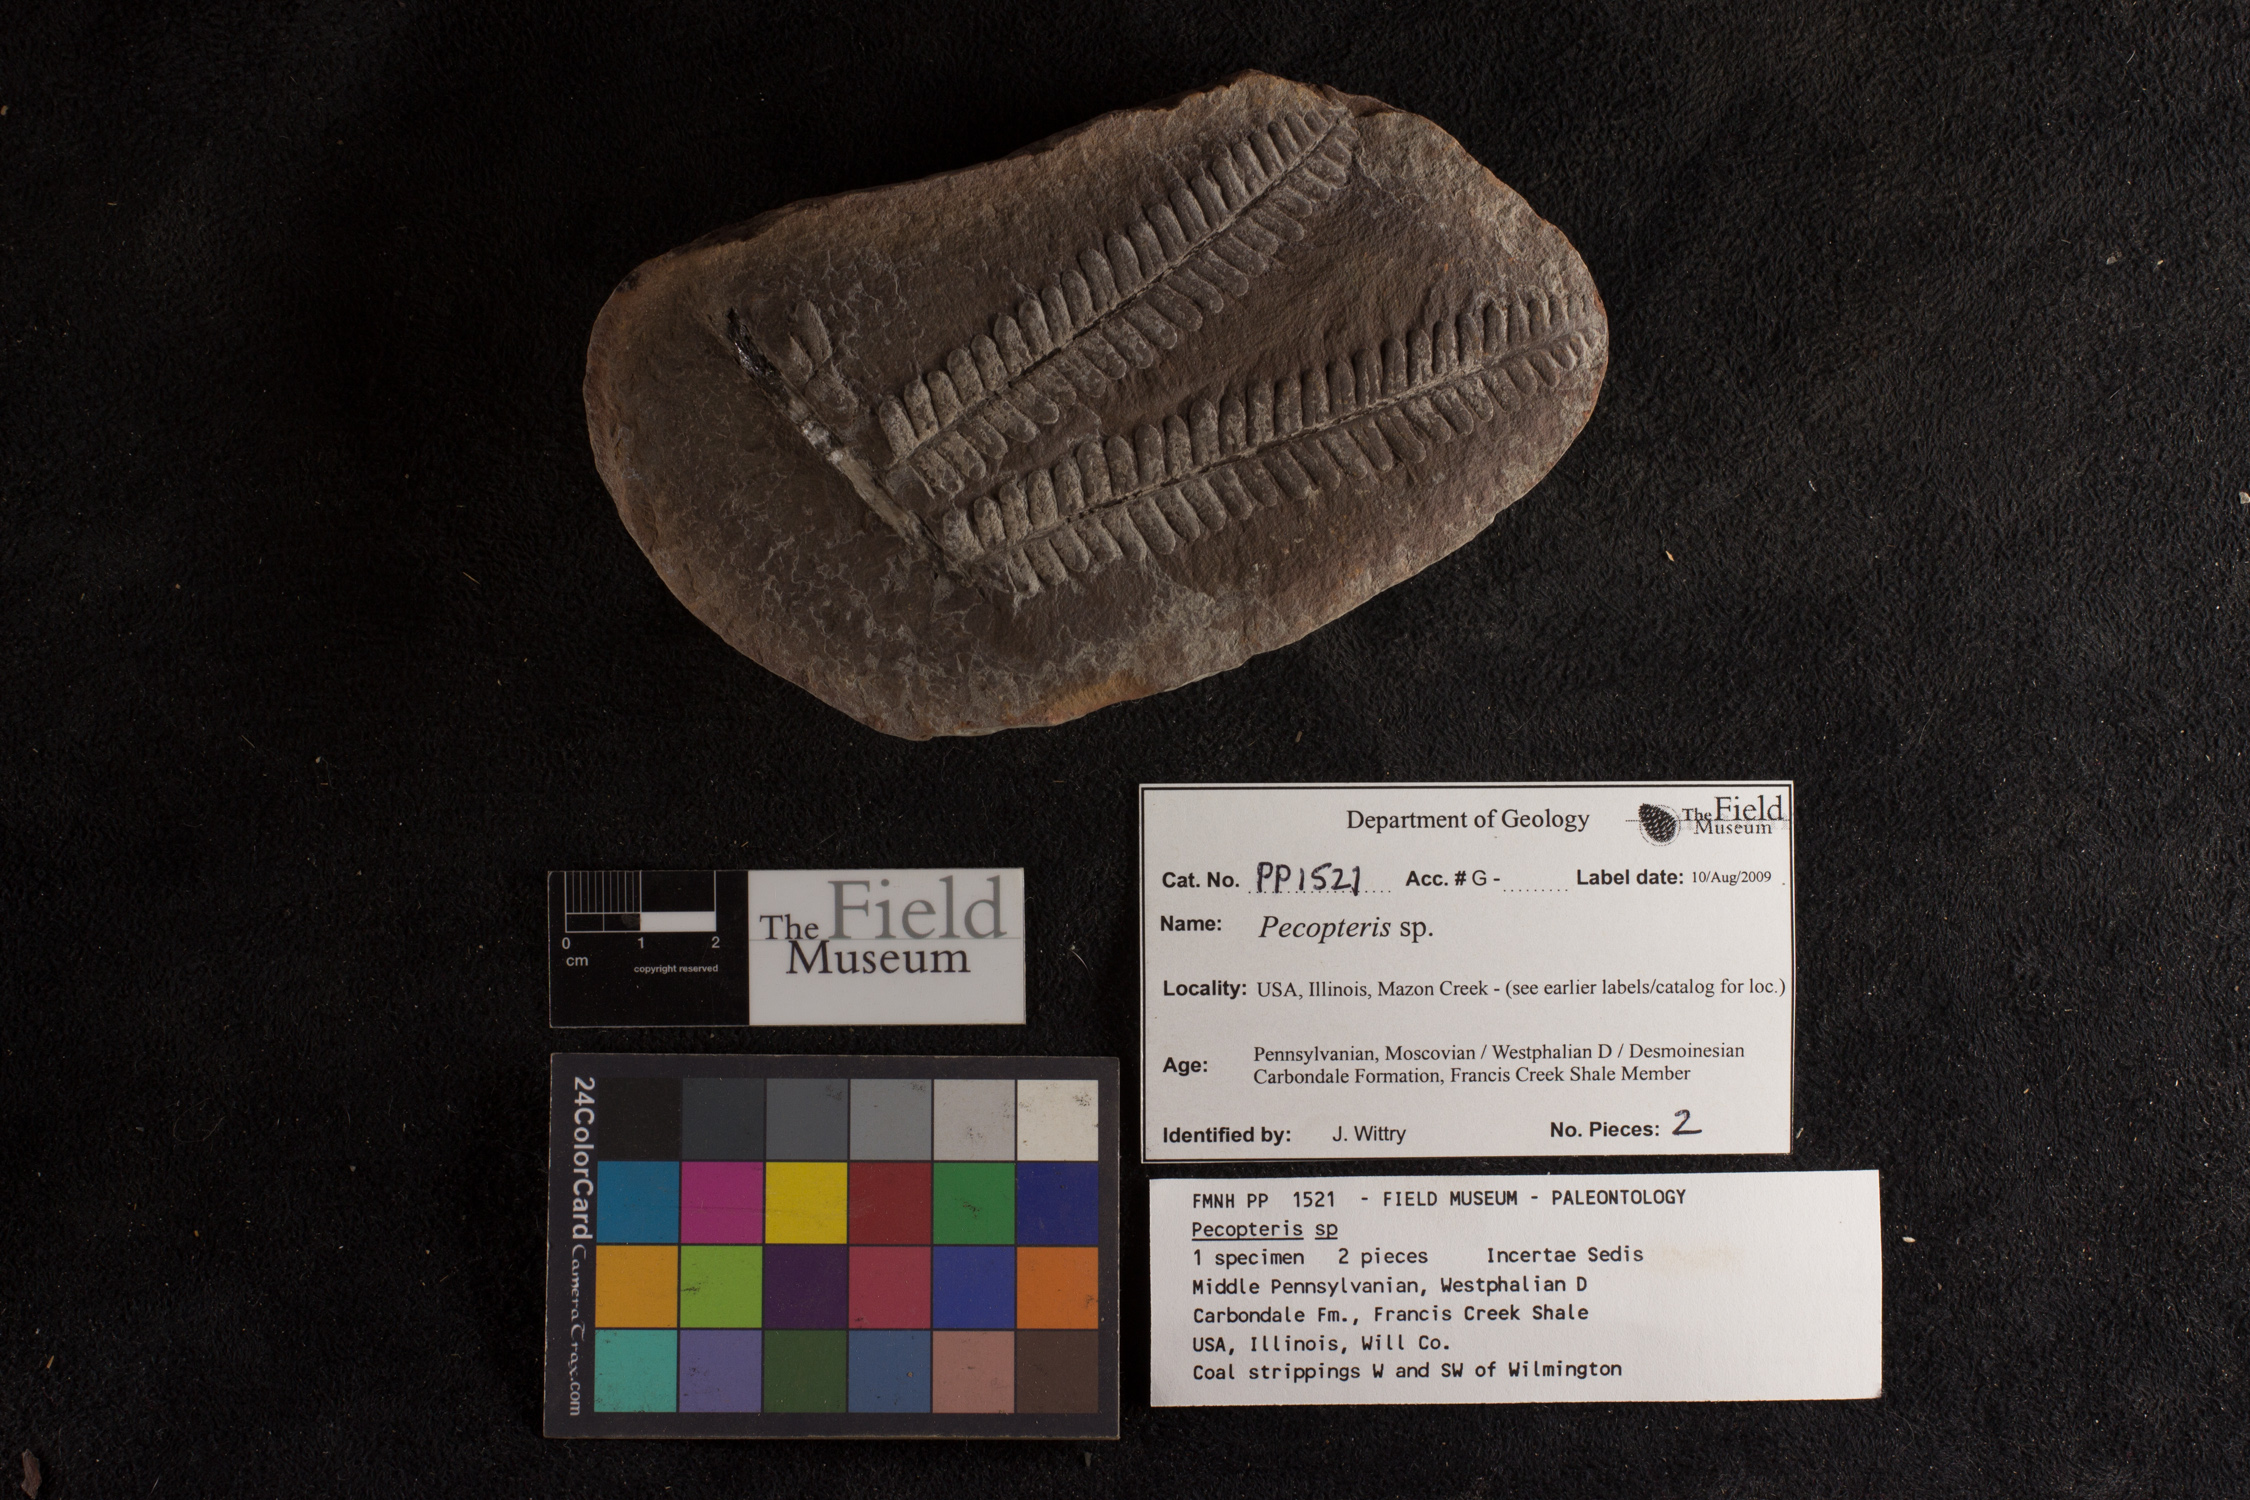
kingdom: Plantae
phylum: Tracheophyta
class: Polypodiopsida
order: Marattiales
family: Asterothecaceae
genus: Pecopteris
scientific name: Pecopteris
